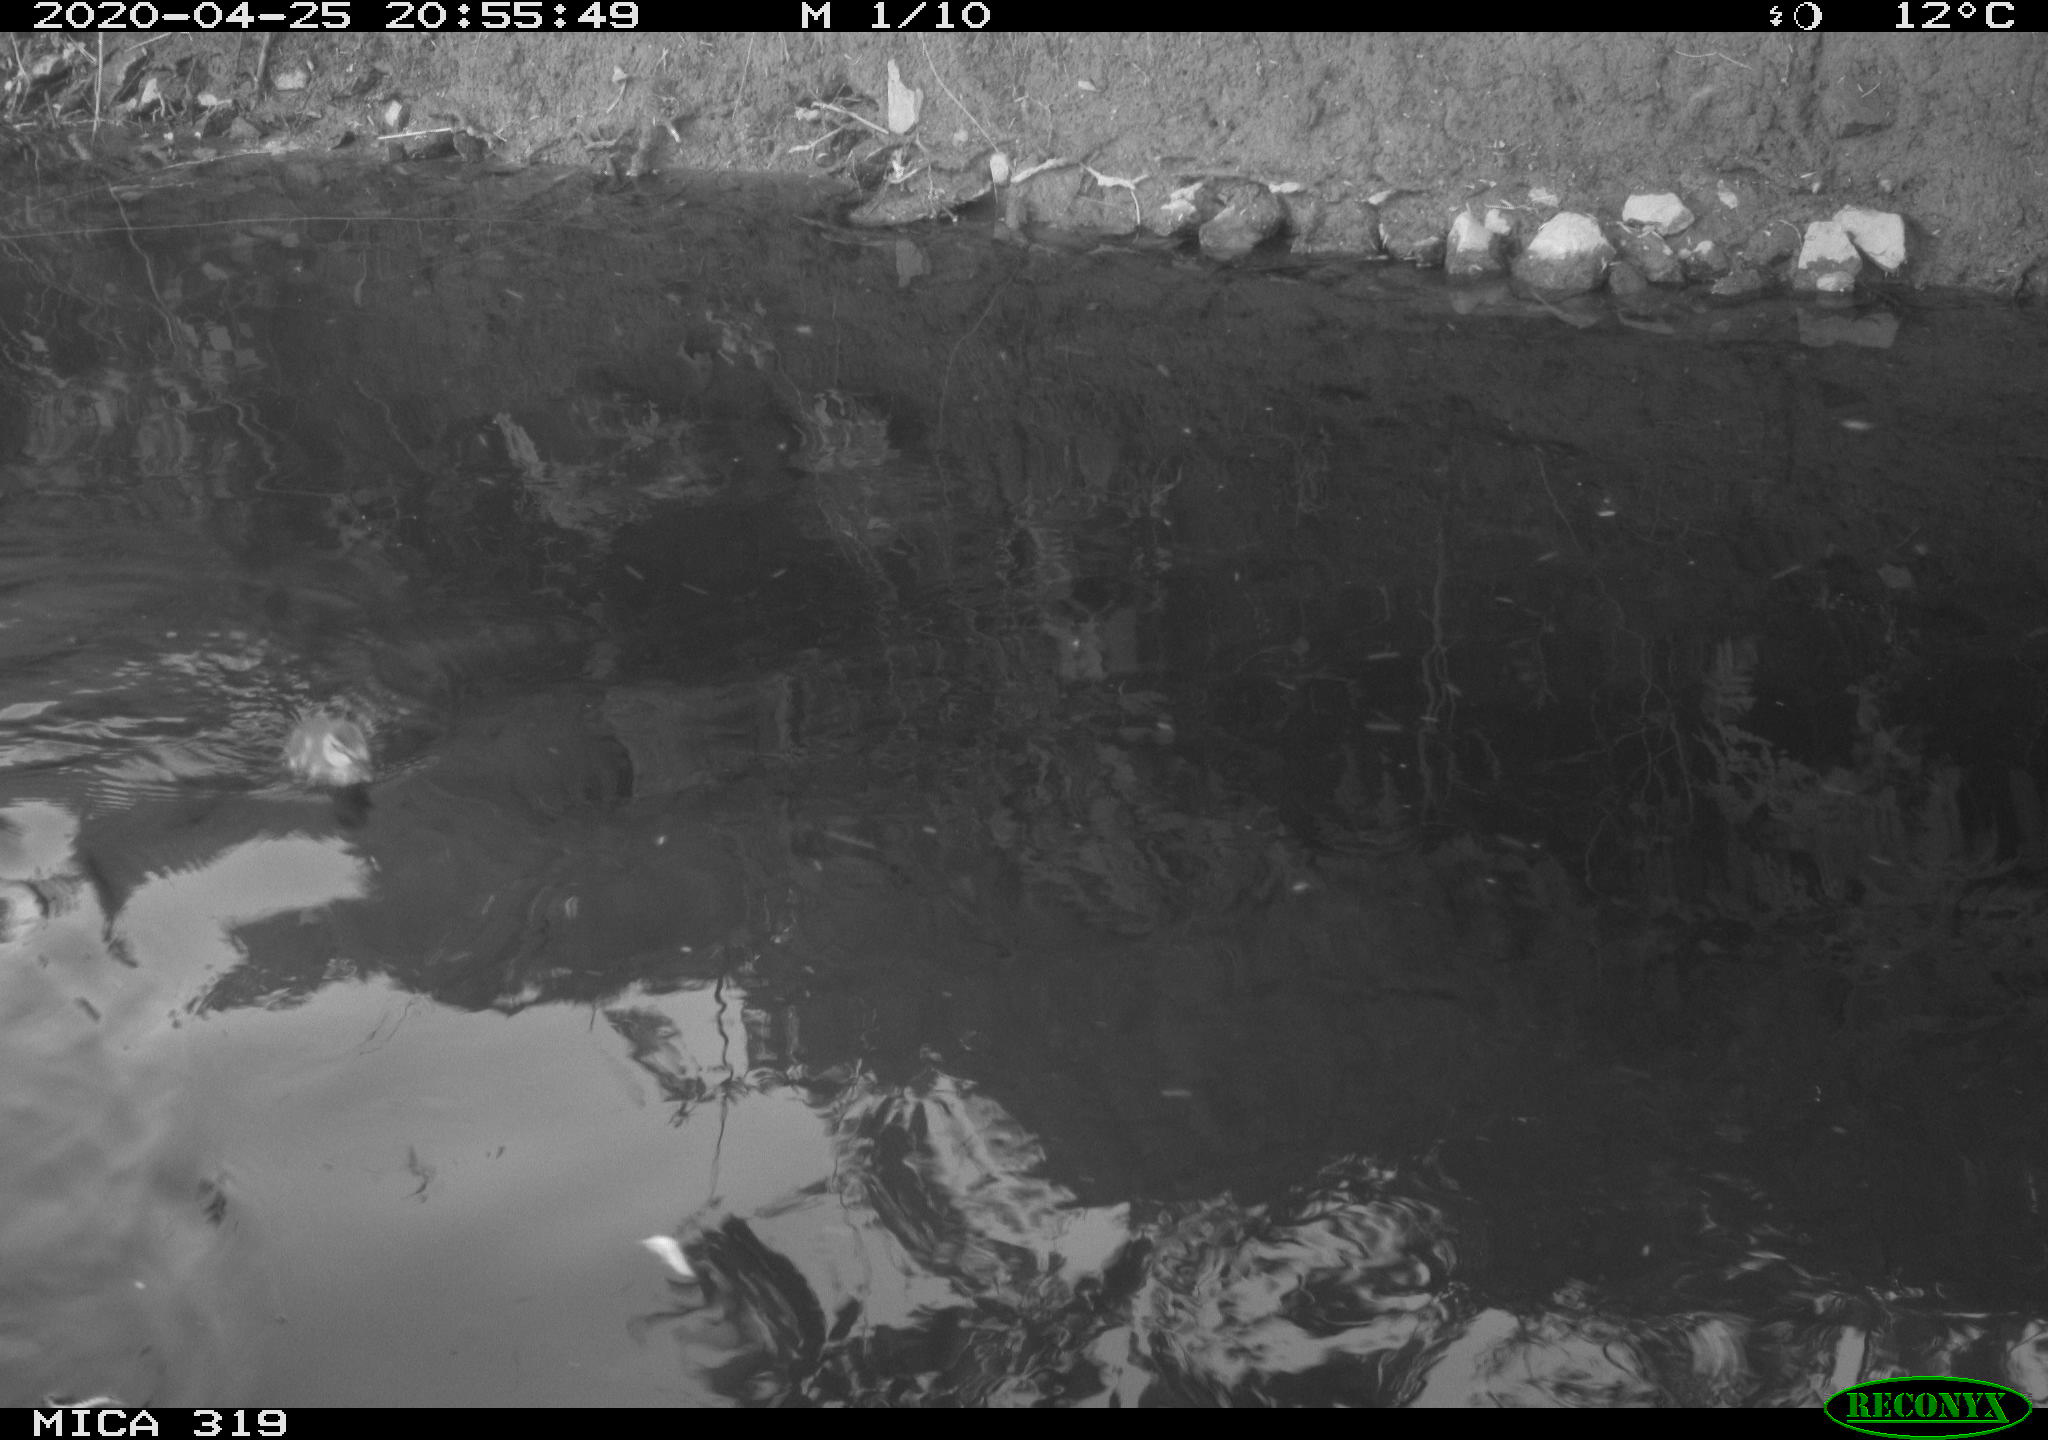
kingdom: Animalia
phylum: Chordata
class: Aves
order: Anseriformes
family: Anatidae
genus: Anas
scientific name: Anas platyrhynchos
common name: Mallard
